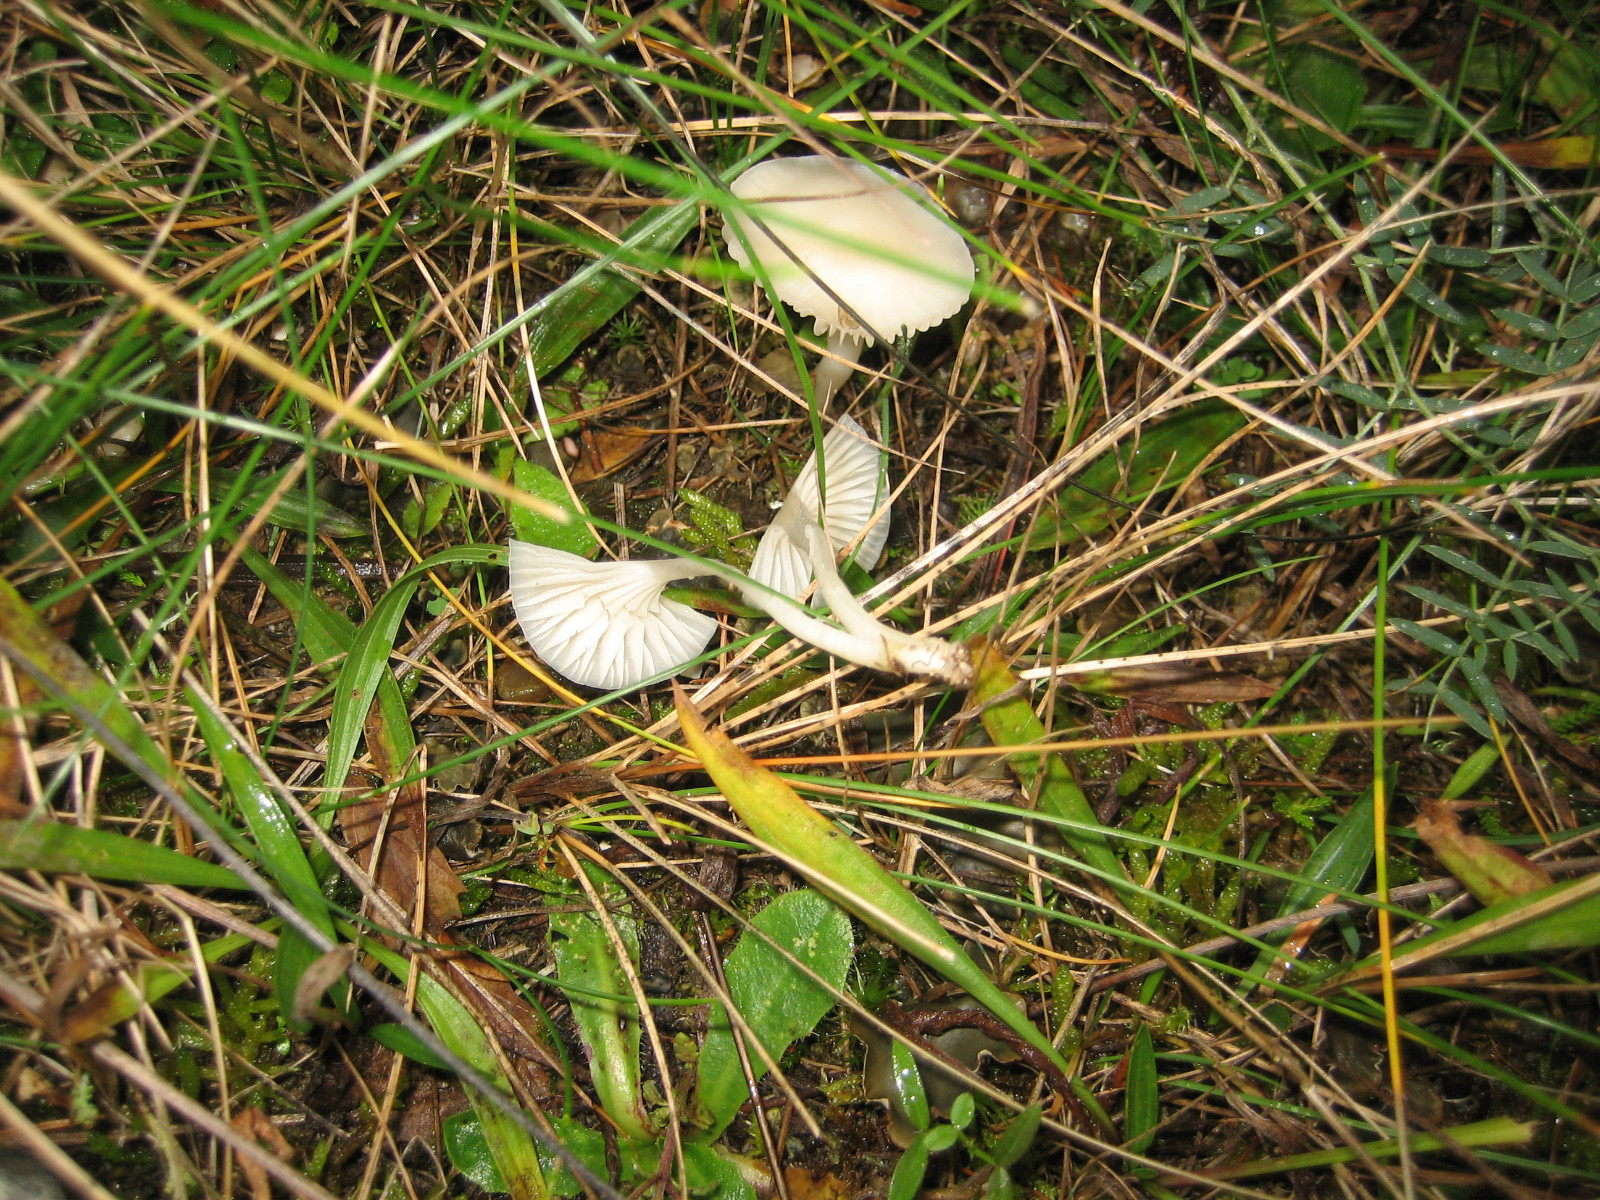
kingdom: Fungi
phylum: Basidiomycota
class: Agaricomycetes
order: Agaricales
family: Hygrophoraceae
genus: Cuphophyllus
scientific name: Cuphophyllus virgineus
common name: snehvid vokshat
